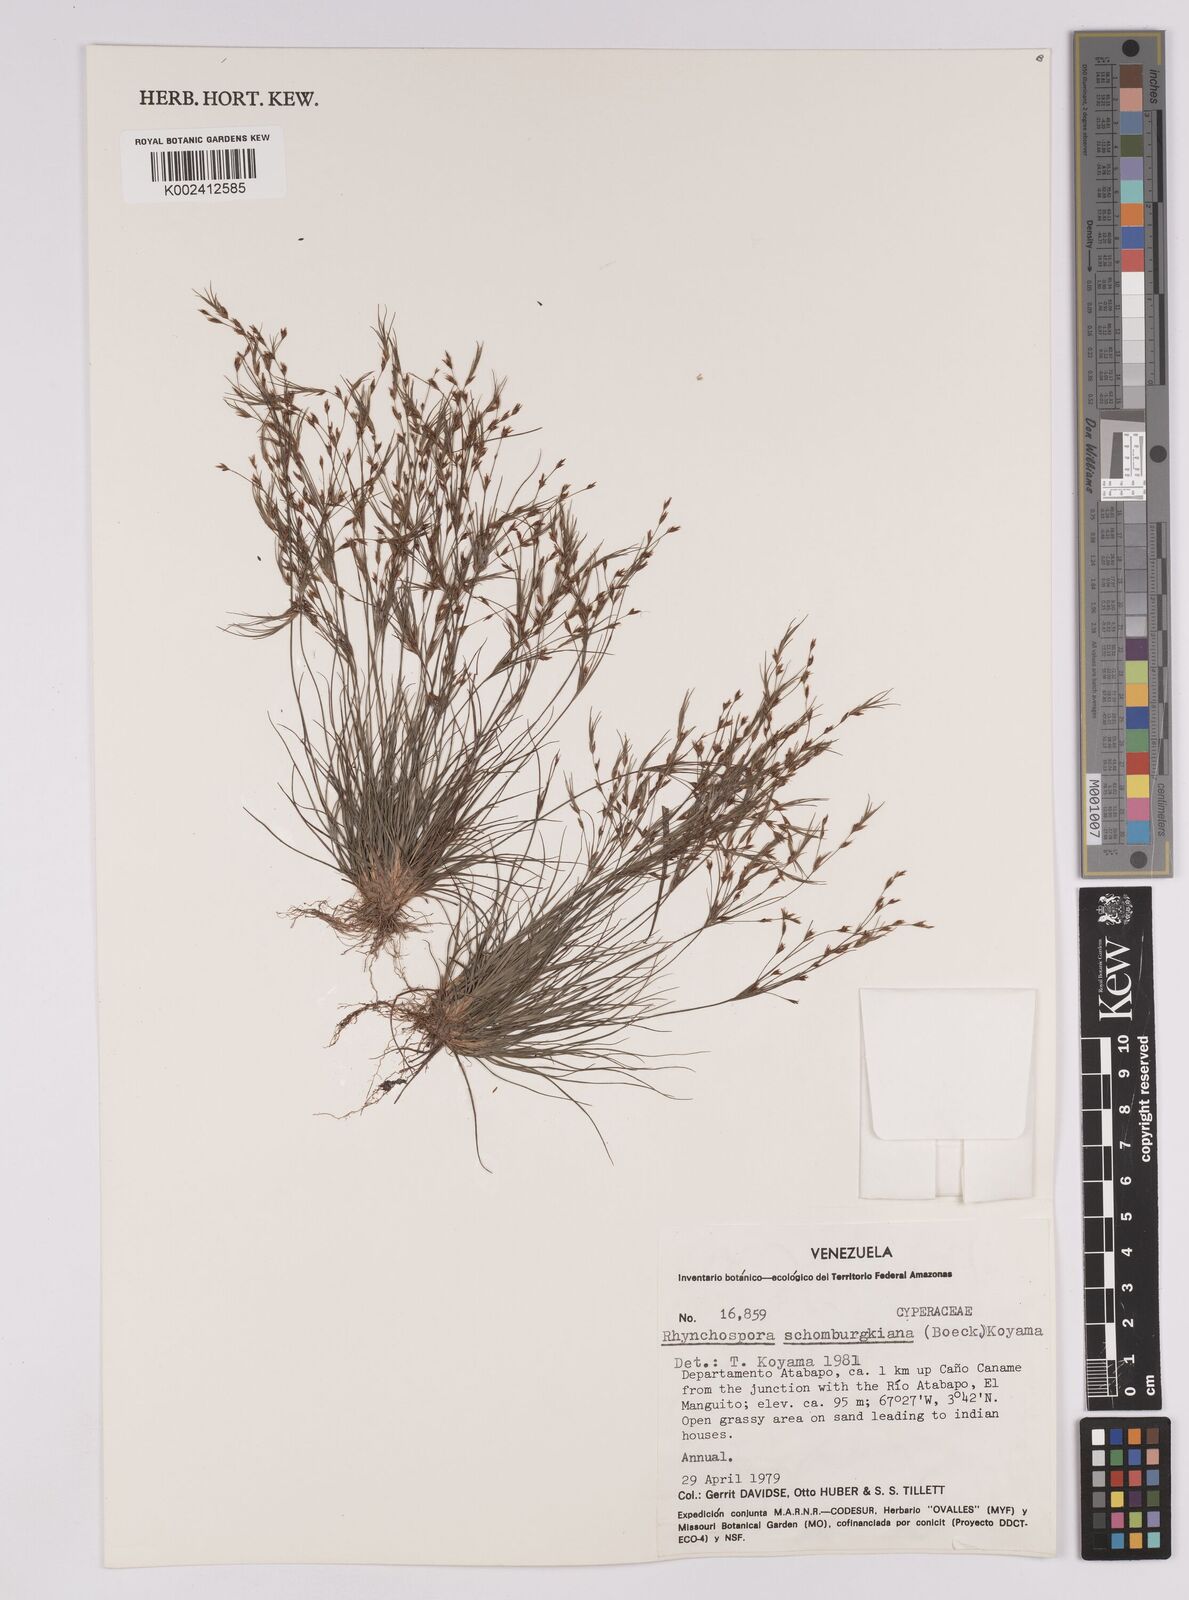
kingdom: Plantae
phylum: Tracheophyta
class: Liliopsida
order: Poales
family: Cyperaceae
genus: Rhynchospora
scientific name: Rhynchospora schomburgkiana
